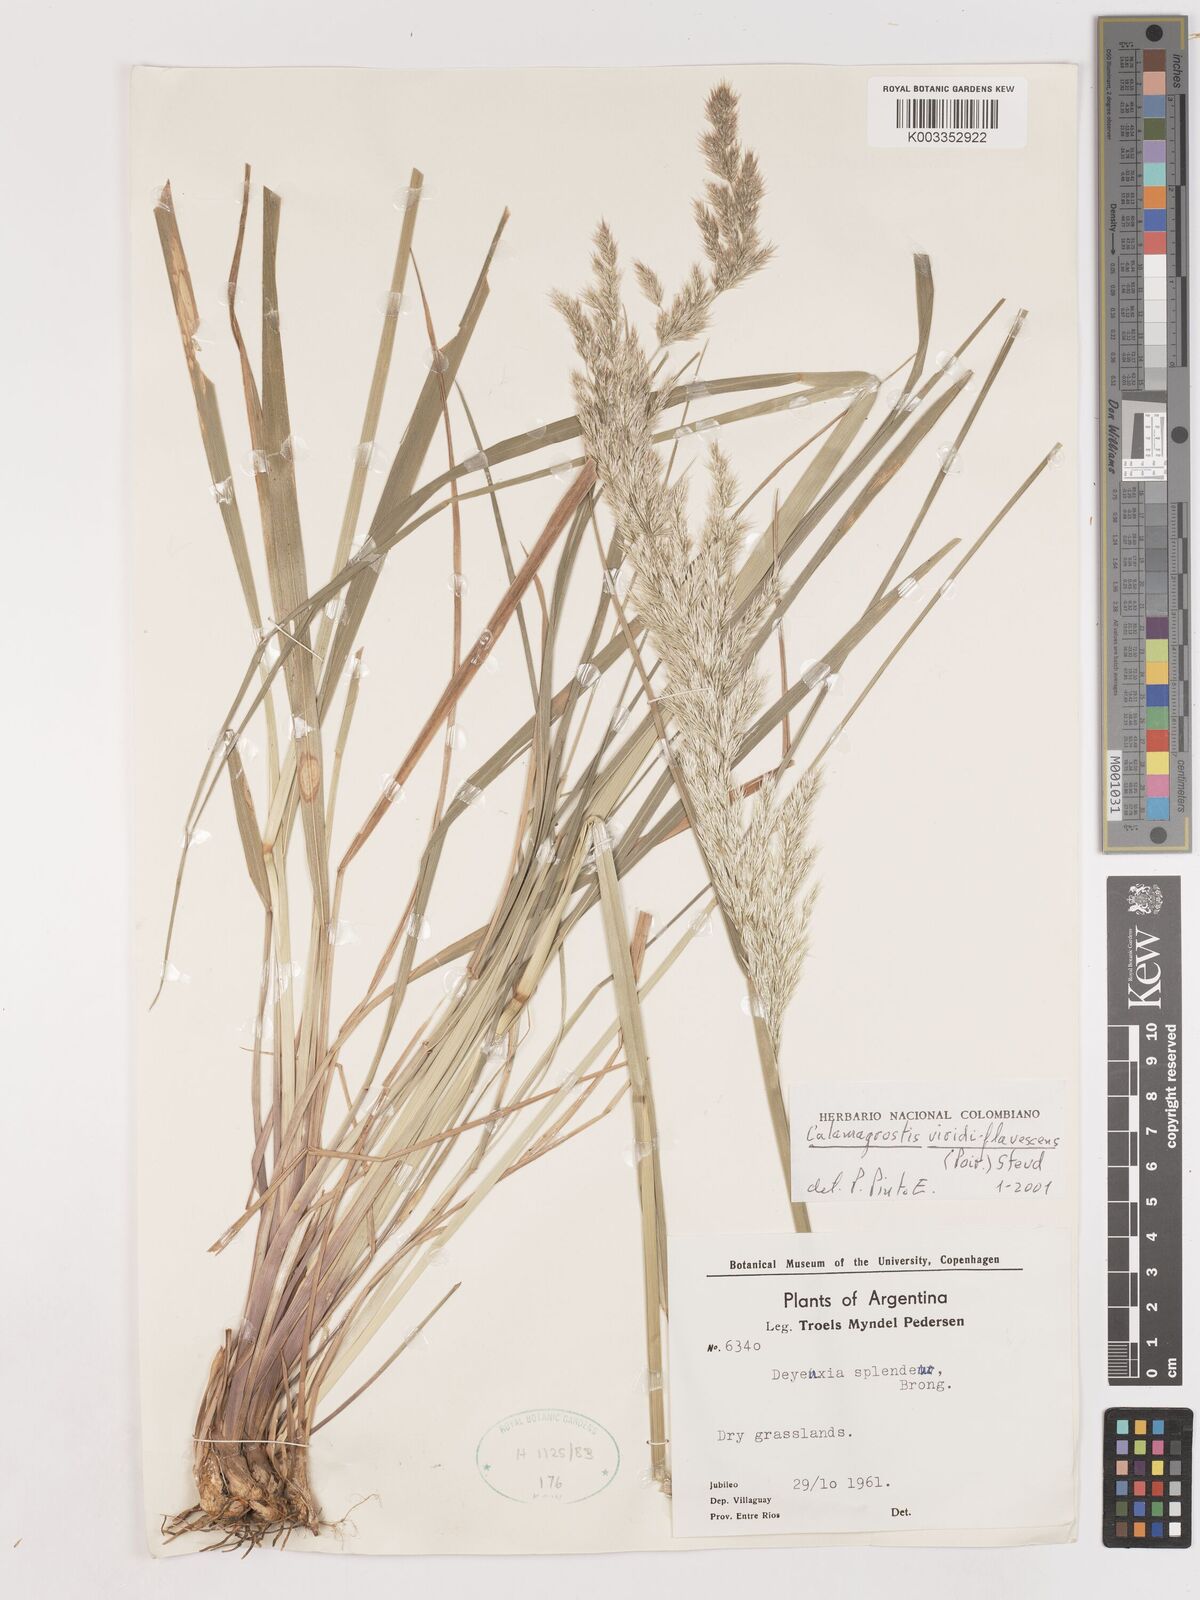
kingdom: Plantae
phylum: Tracheophyta
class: Liliopsida
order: Poales
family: Poaceae
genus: Cinnagrostis
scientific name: Cinnagrostis viridiflavescens
